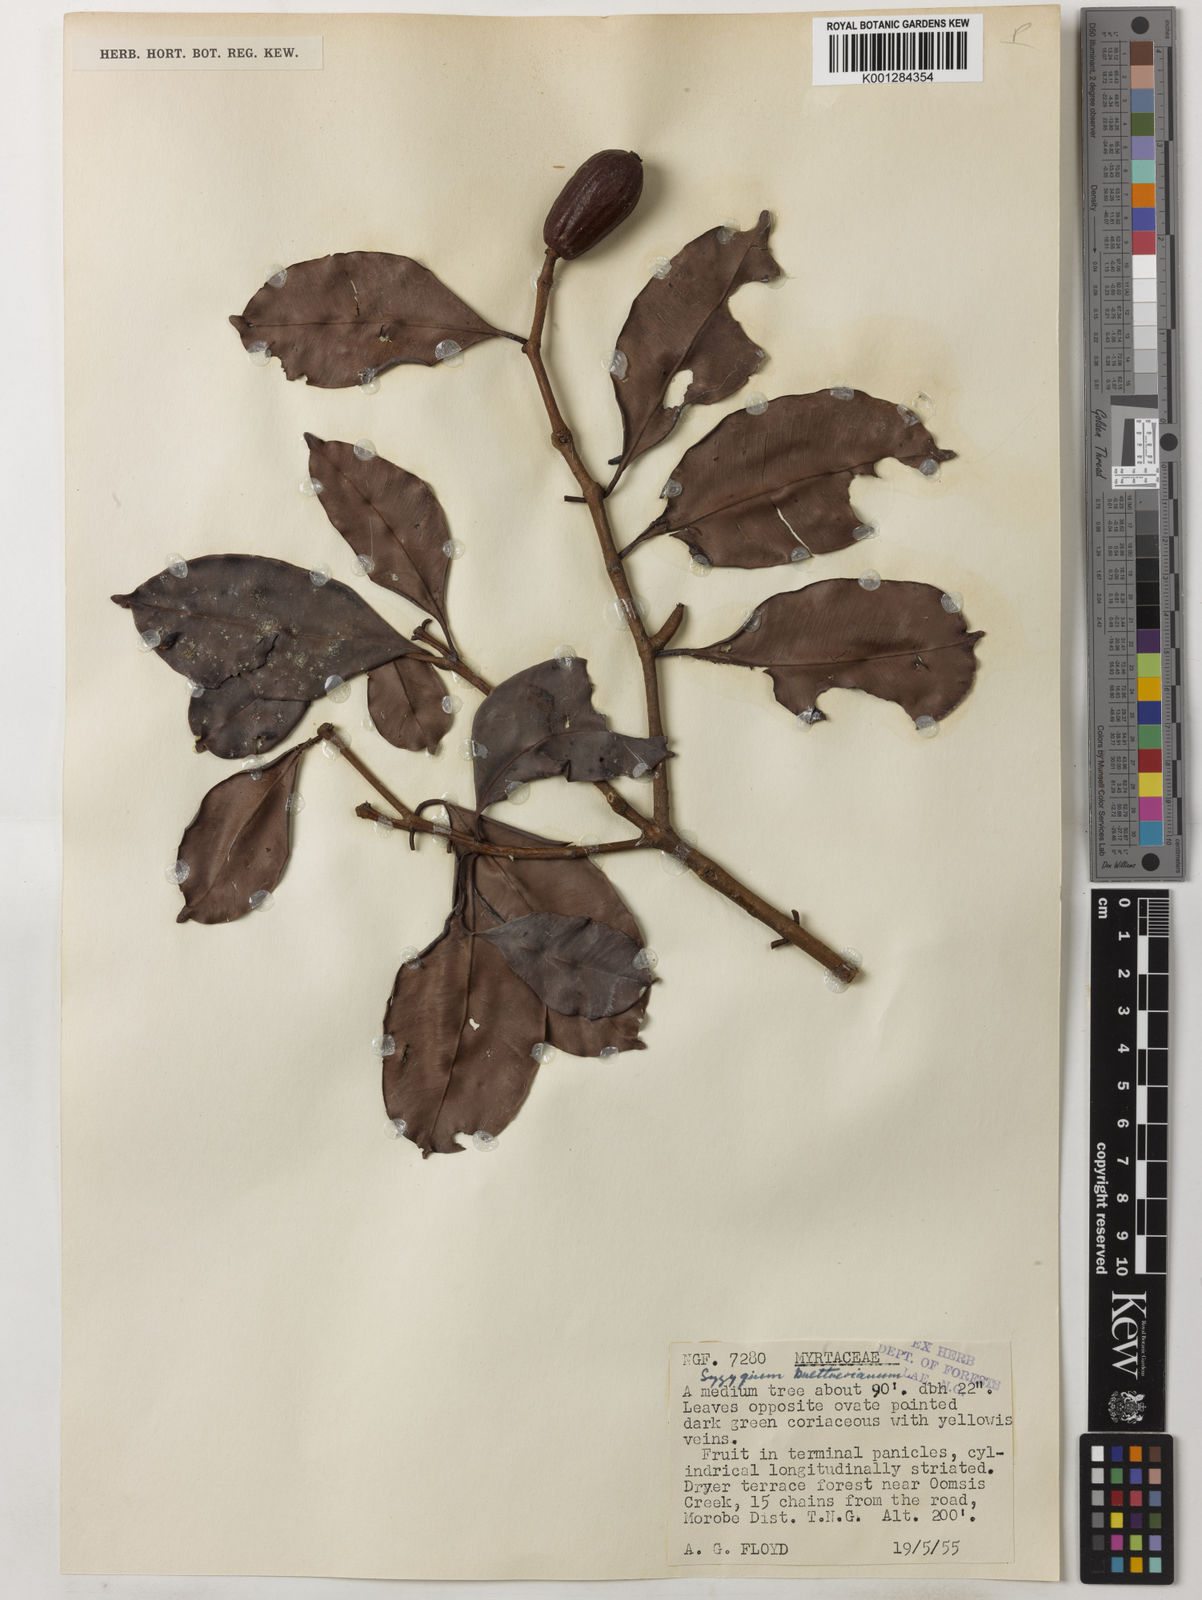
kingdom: Plantae
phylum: Tracheophyta
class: Magnoliopsida
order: Myrtales
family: Myrtaceae
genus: Syzygium
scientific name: Syzygium buettnerianum
